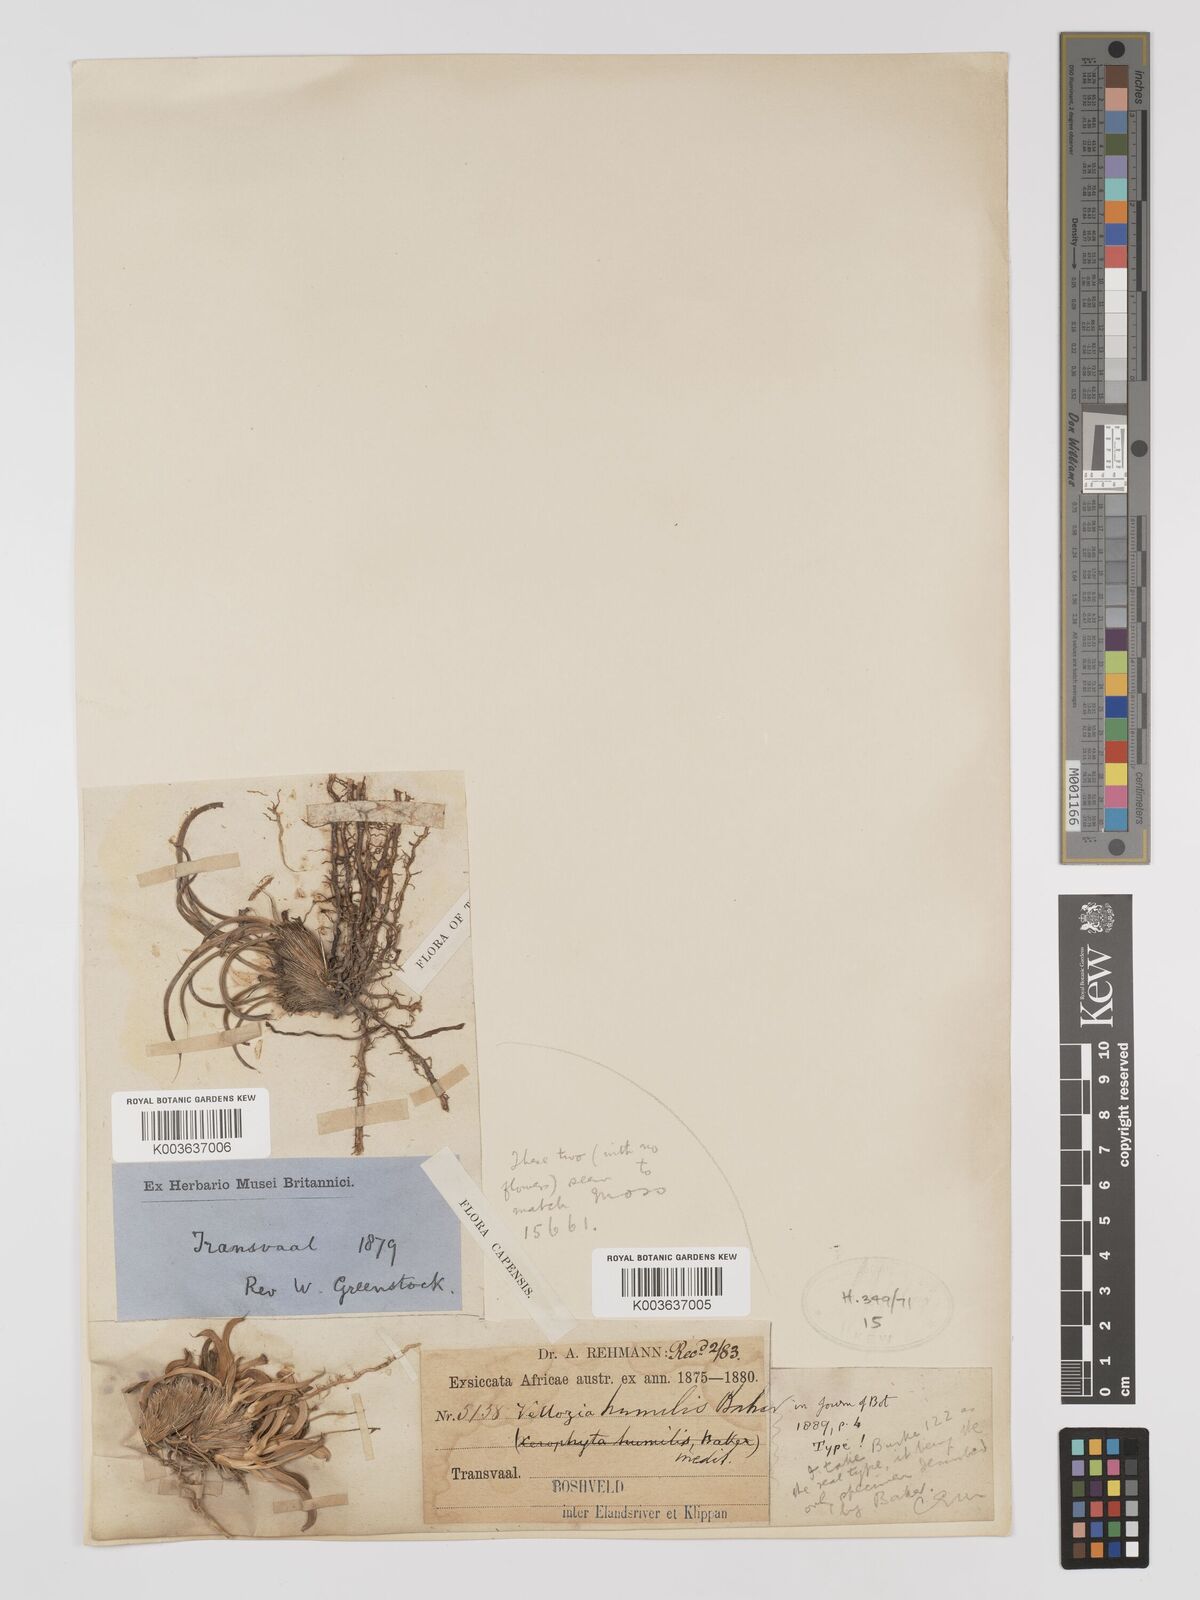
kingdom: Plantae
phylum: Tracheophyta
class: Liliopsida
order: Pandanales
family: Velloziaceae
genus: Xerophyta
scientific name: Xerophyta humilis
